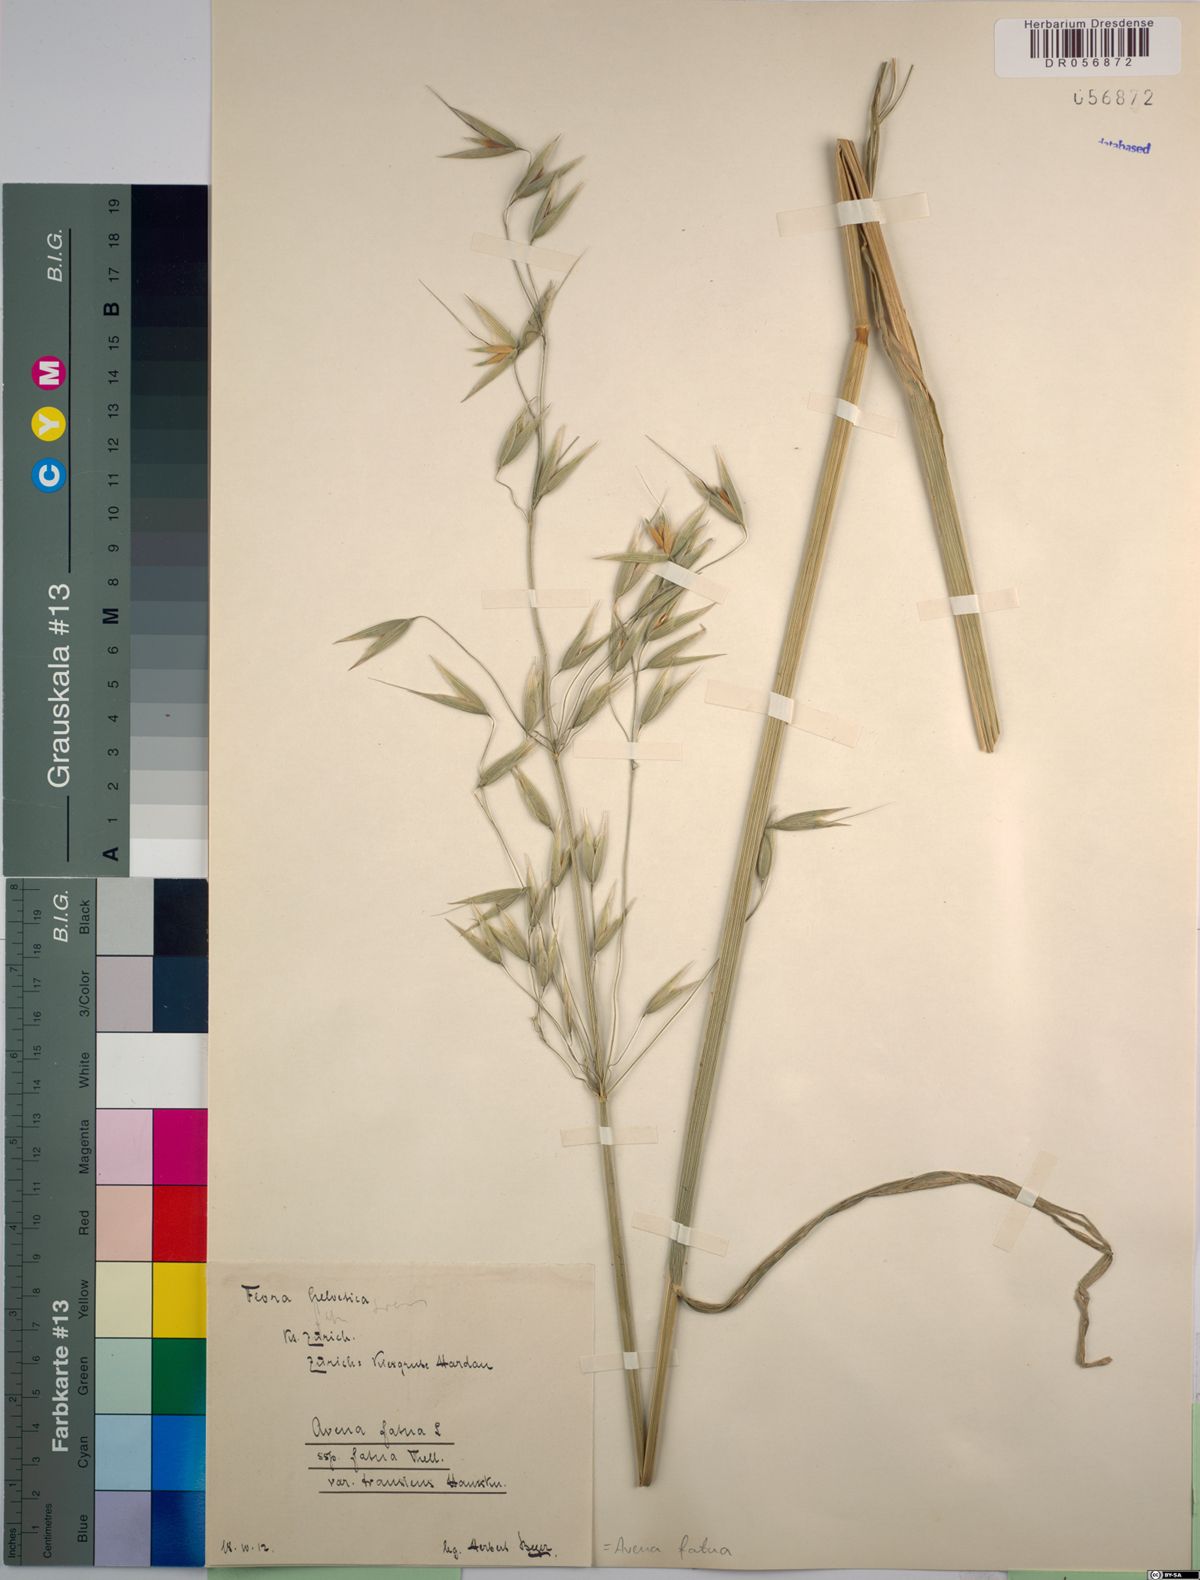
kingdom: Plantae
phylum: Tracheophyta
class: Liliopsida
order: Poales
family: Poaceae
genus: Avena
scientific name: Avena fatua
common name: Wild oat
